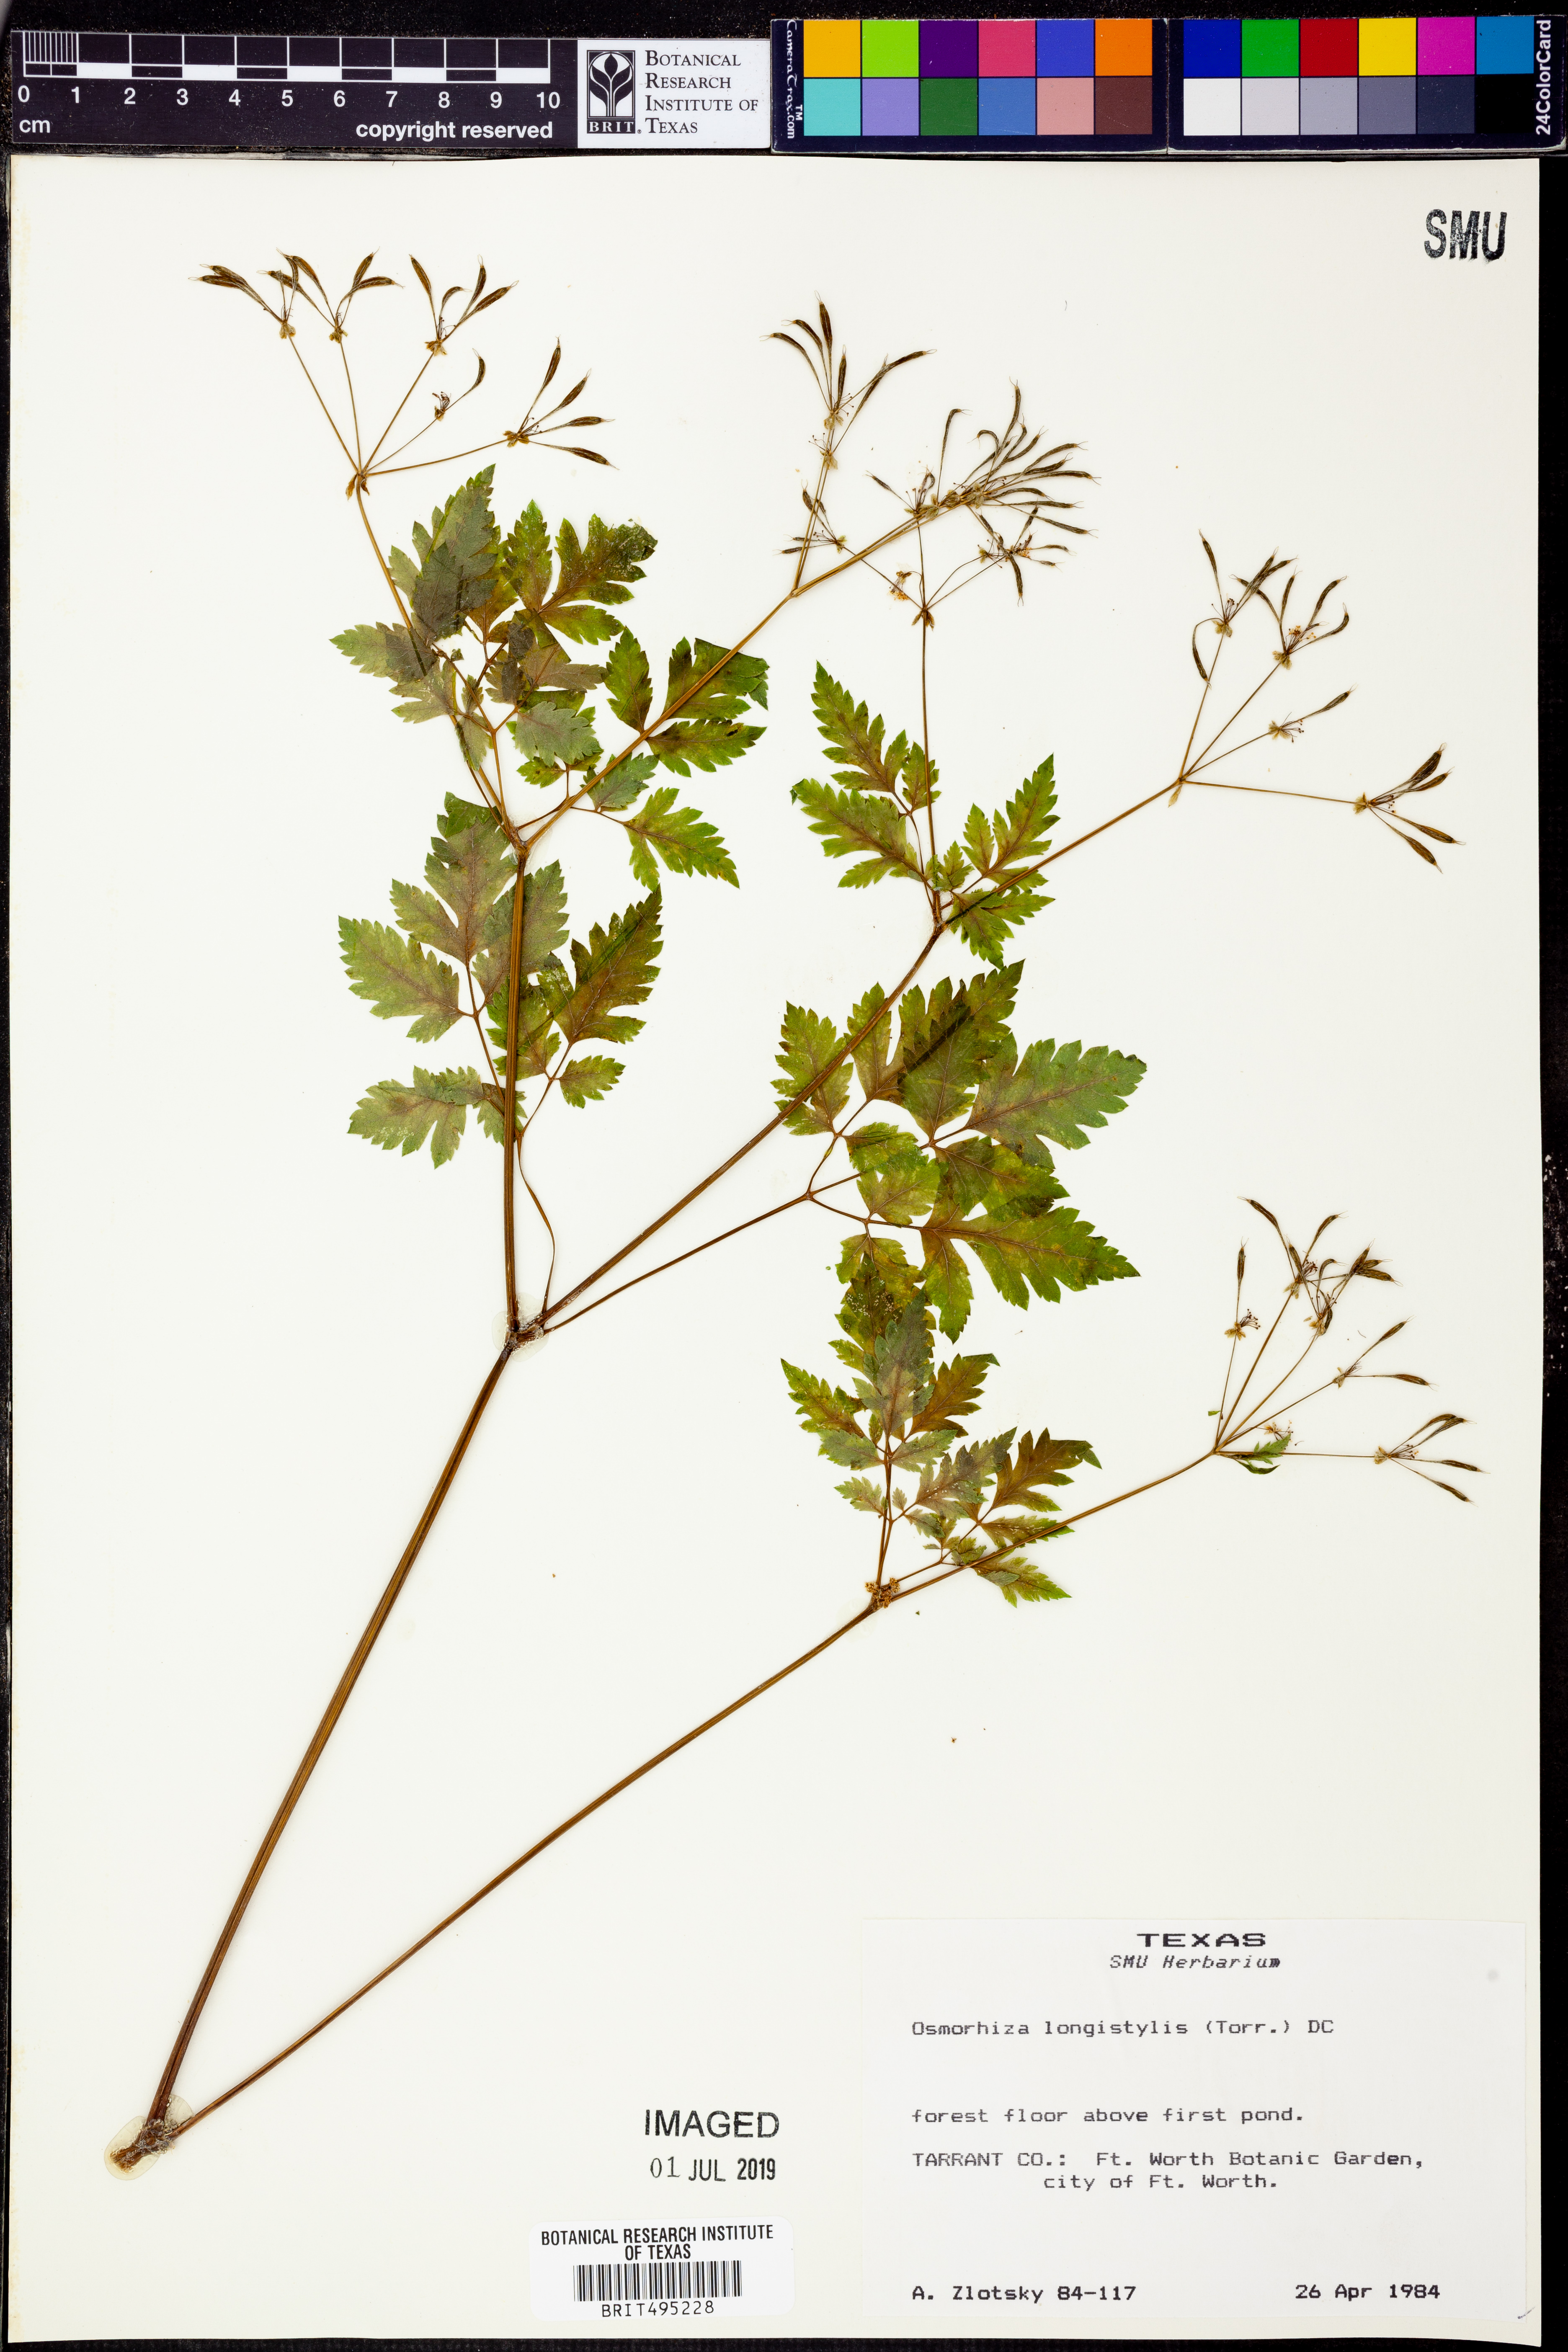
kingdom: Plantae
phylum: Tracheophyta
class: Magnoliopsida
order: Apiales
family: Apiaceae
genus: Osmorhiza
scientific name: Osmorhiza longistylis
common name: Smooth sweet cicely
